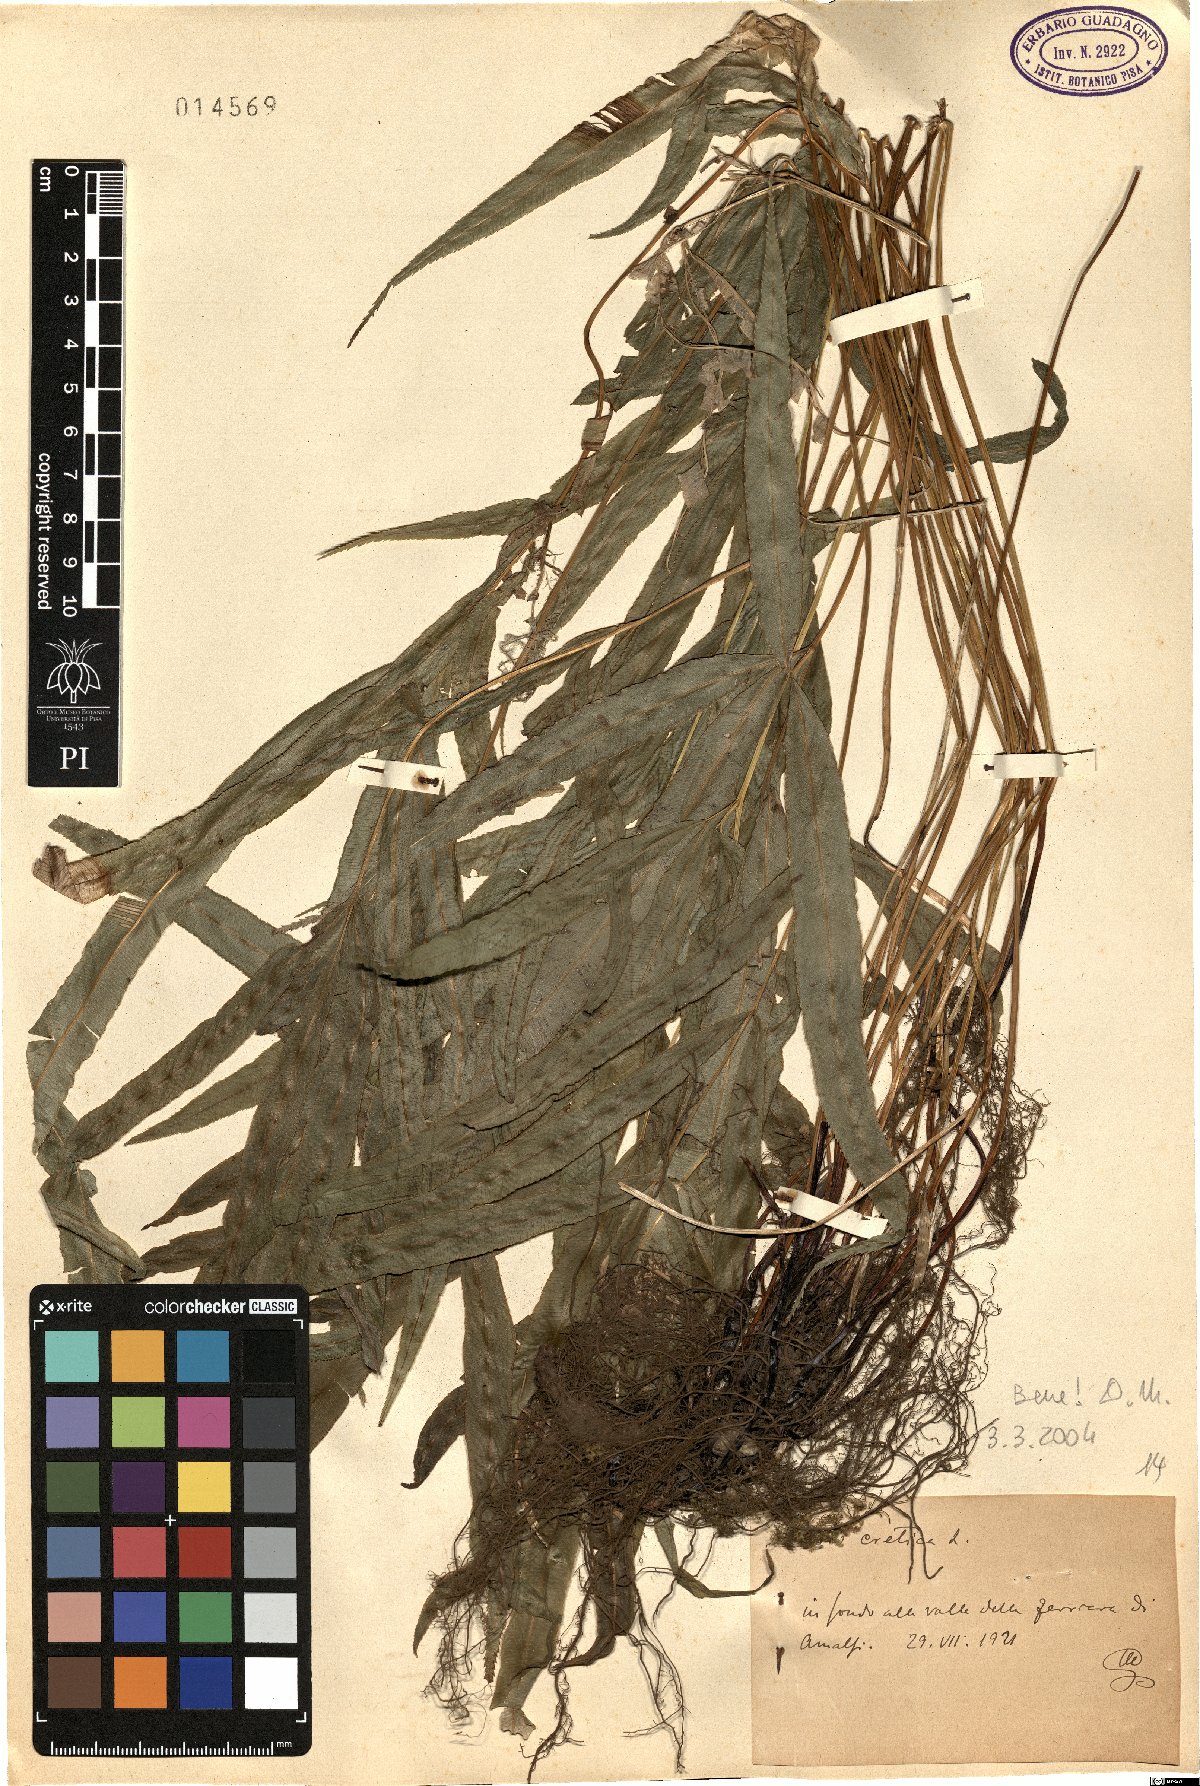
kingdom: Plantae
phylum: Tracheophyta
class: Polypodiopsida
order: Polypodiales
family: Pteridaceae
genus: Pteris
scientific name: Pteris cretica
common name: Ribbon fern
